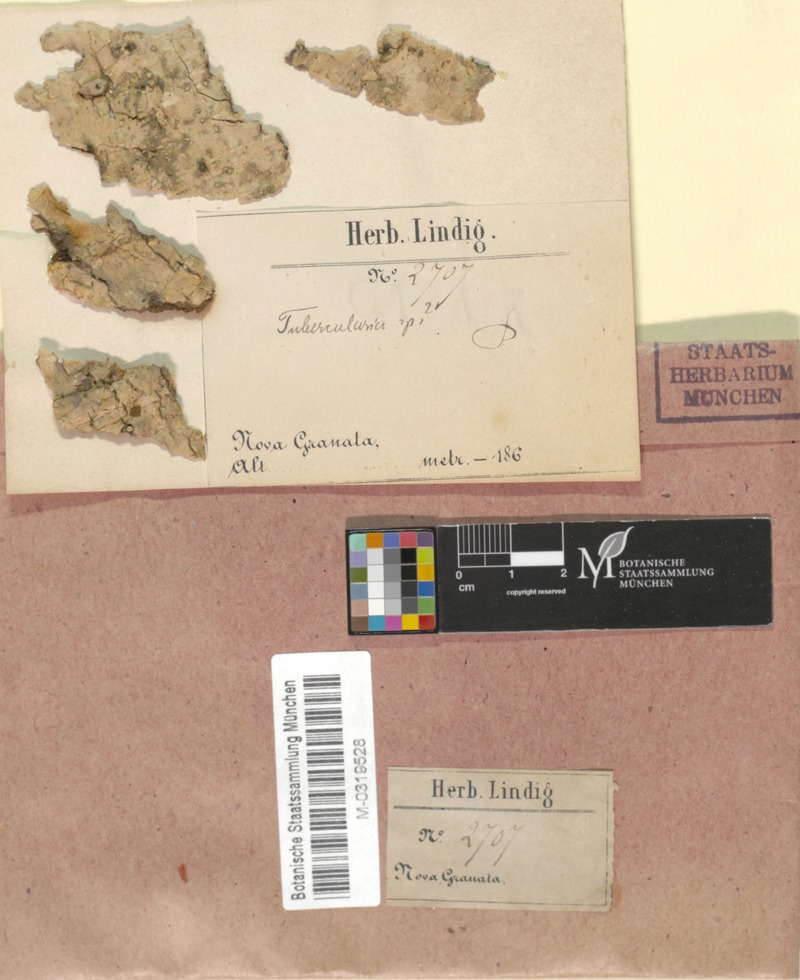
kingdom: Fungi
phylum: Ascomycota
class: Sordariomycetes
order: Hypocreales
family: Nectriaceae
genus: Tubercularia
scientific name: Tubercularia
